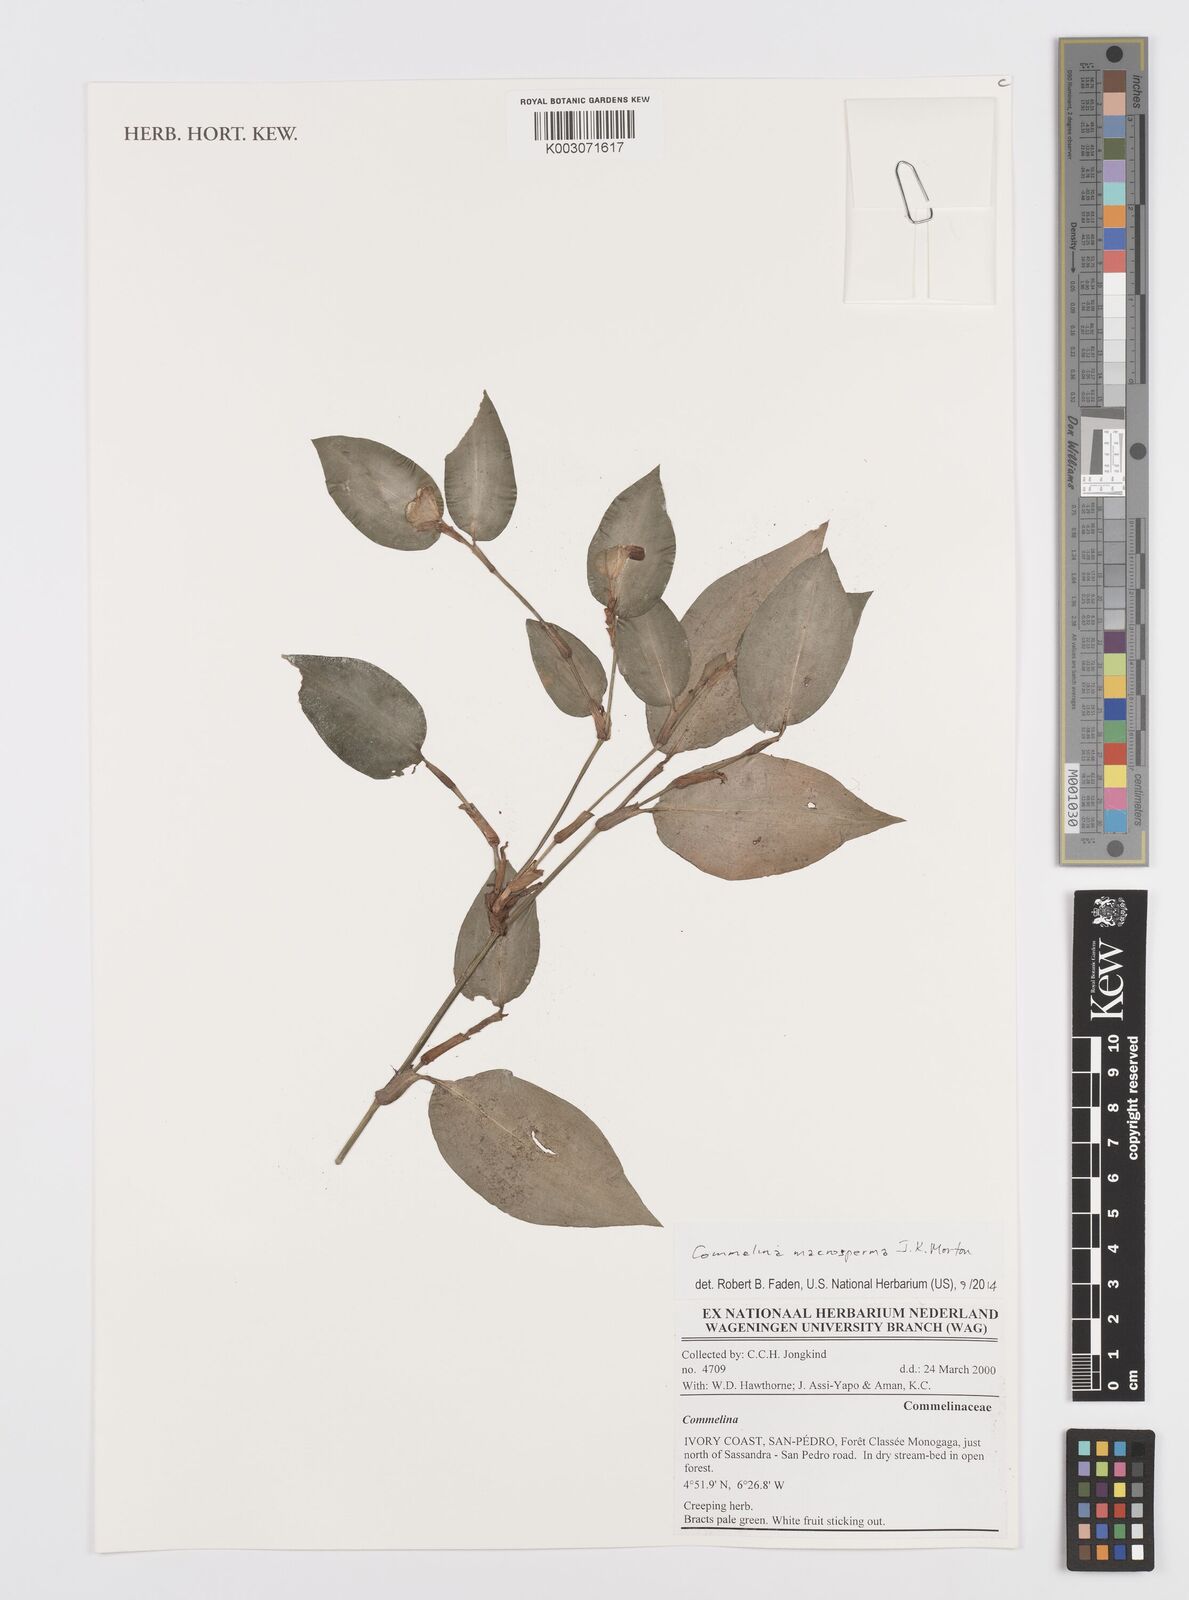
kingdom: Plantae
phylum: Tracheophyta
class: Liliopsida
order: Commelinales
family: Commelinaceae
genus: Commelina
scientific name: Commelina macrosperma
